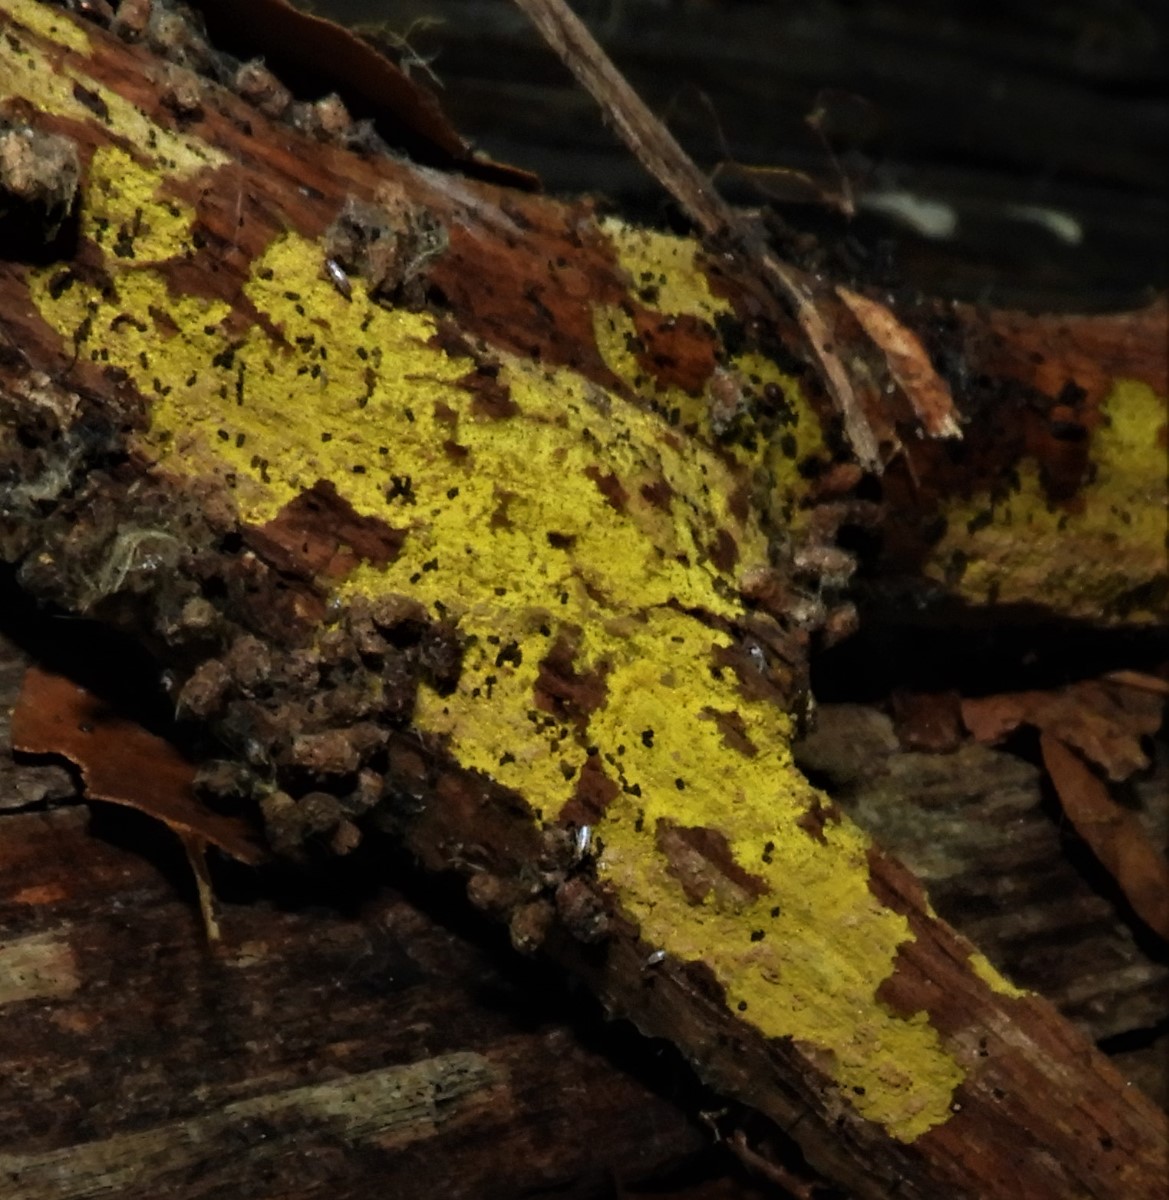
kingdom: Fungi
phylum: Basidiomycota
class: Agaricomycetes
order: Corticiales
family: Corticiaceae
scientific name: Corticiaceae
